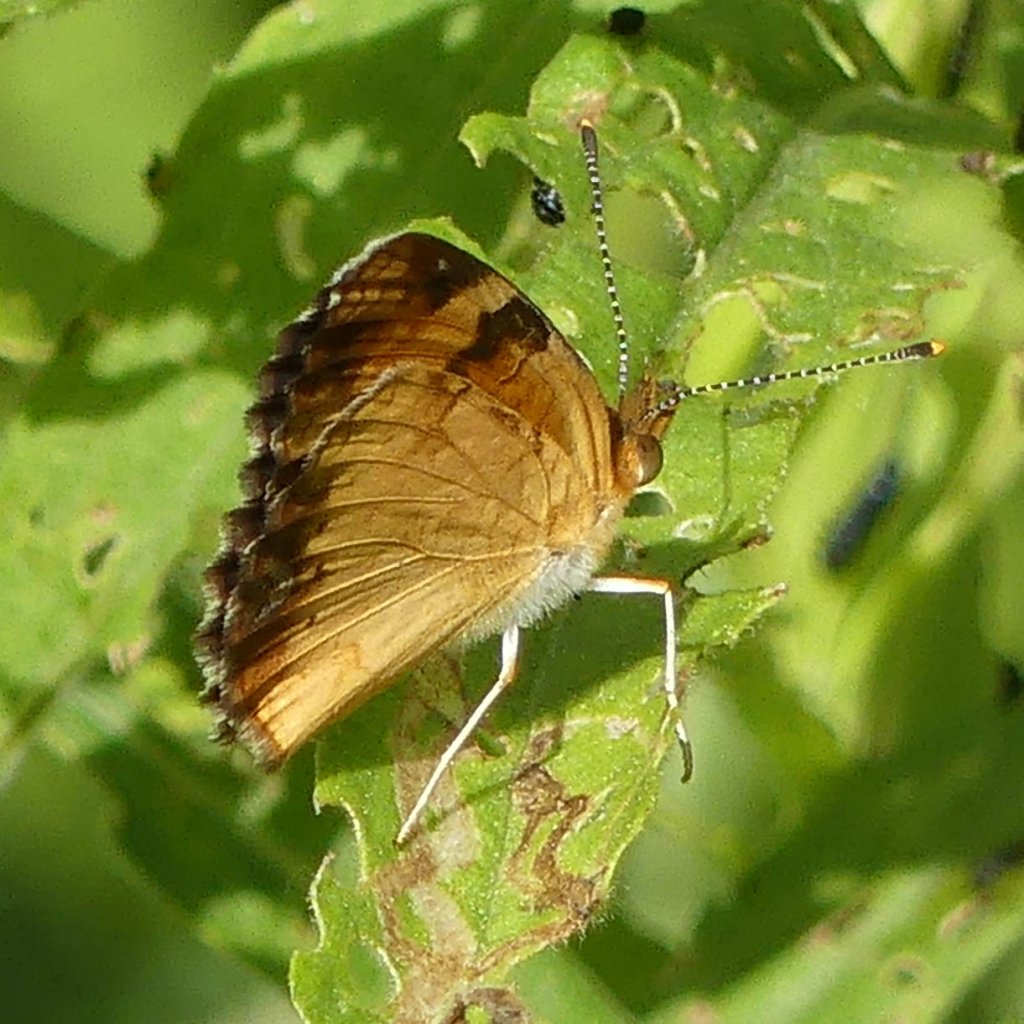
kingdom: Animalia
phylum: Arthropoda
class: Insecta
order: Lepidoptera
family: Nymphalidae
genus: Phyciodes
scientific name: Phyciodes tharos
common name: Northern Crescent
